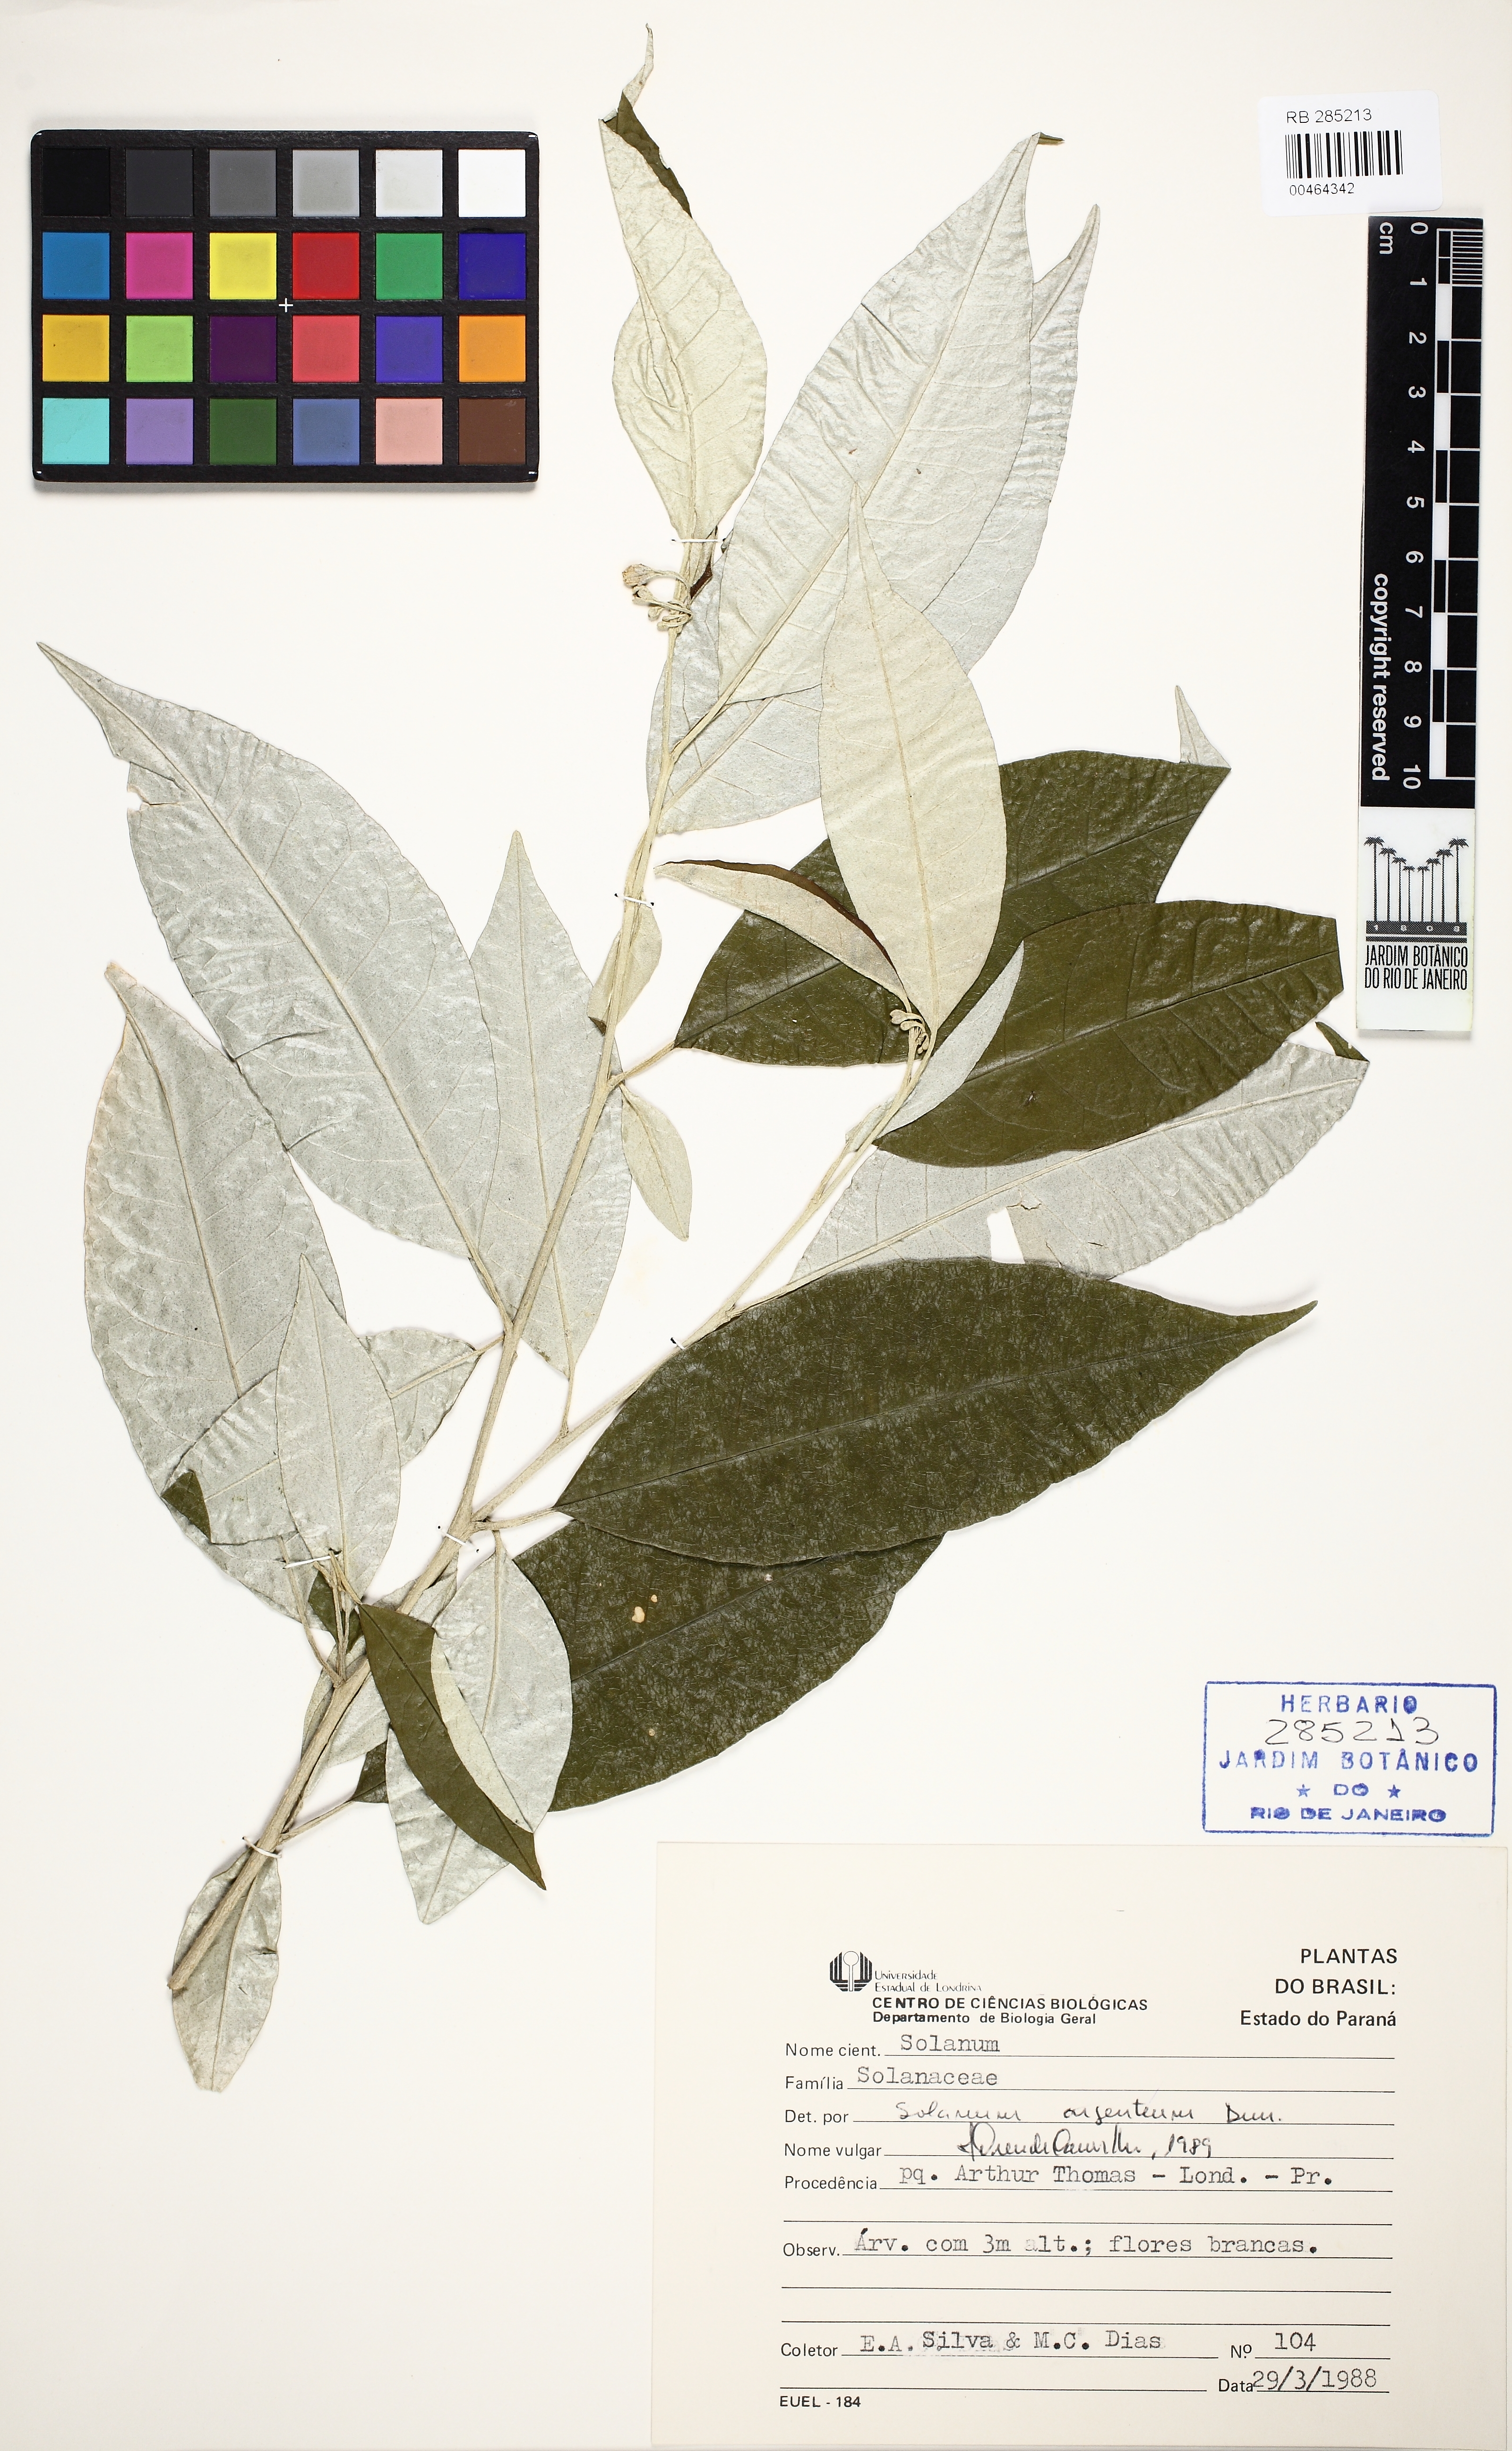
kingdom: Plantae
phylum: Tracheophyta
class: Magnoliopsida
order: Solanales
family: Solanaceae
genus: Solanum
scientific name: Solanum swartzianum
